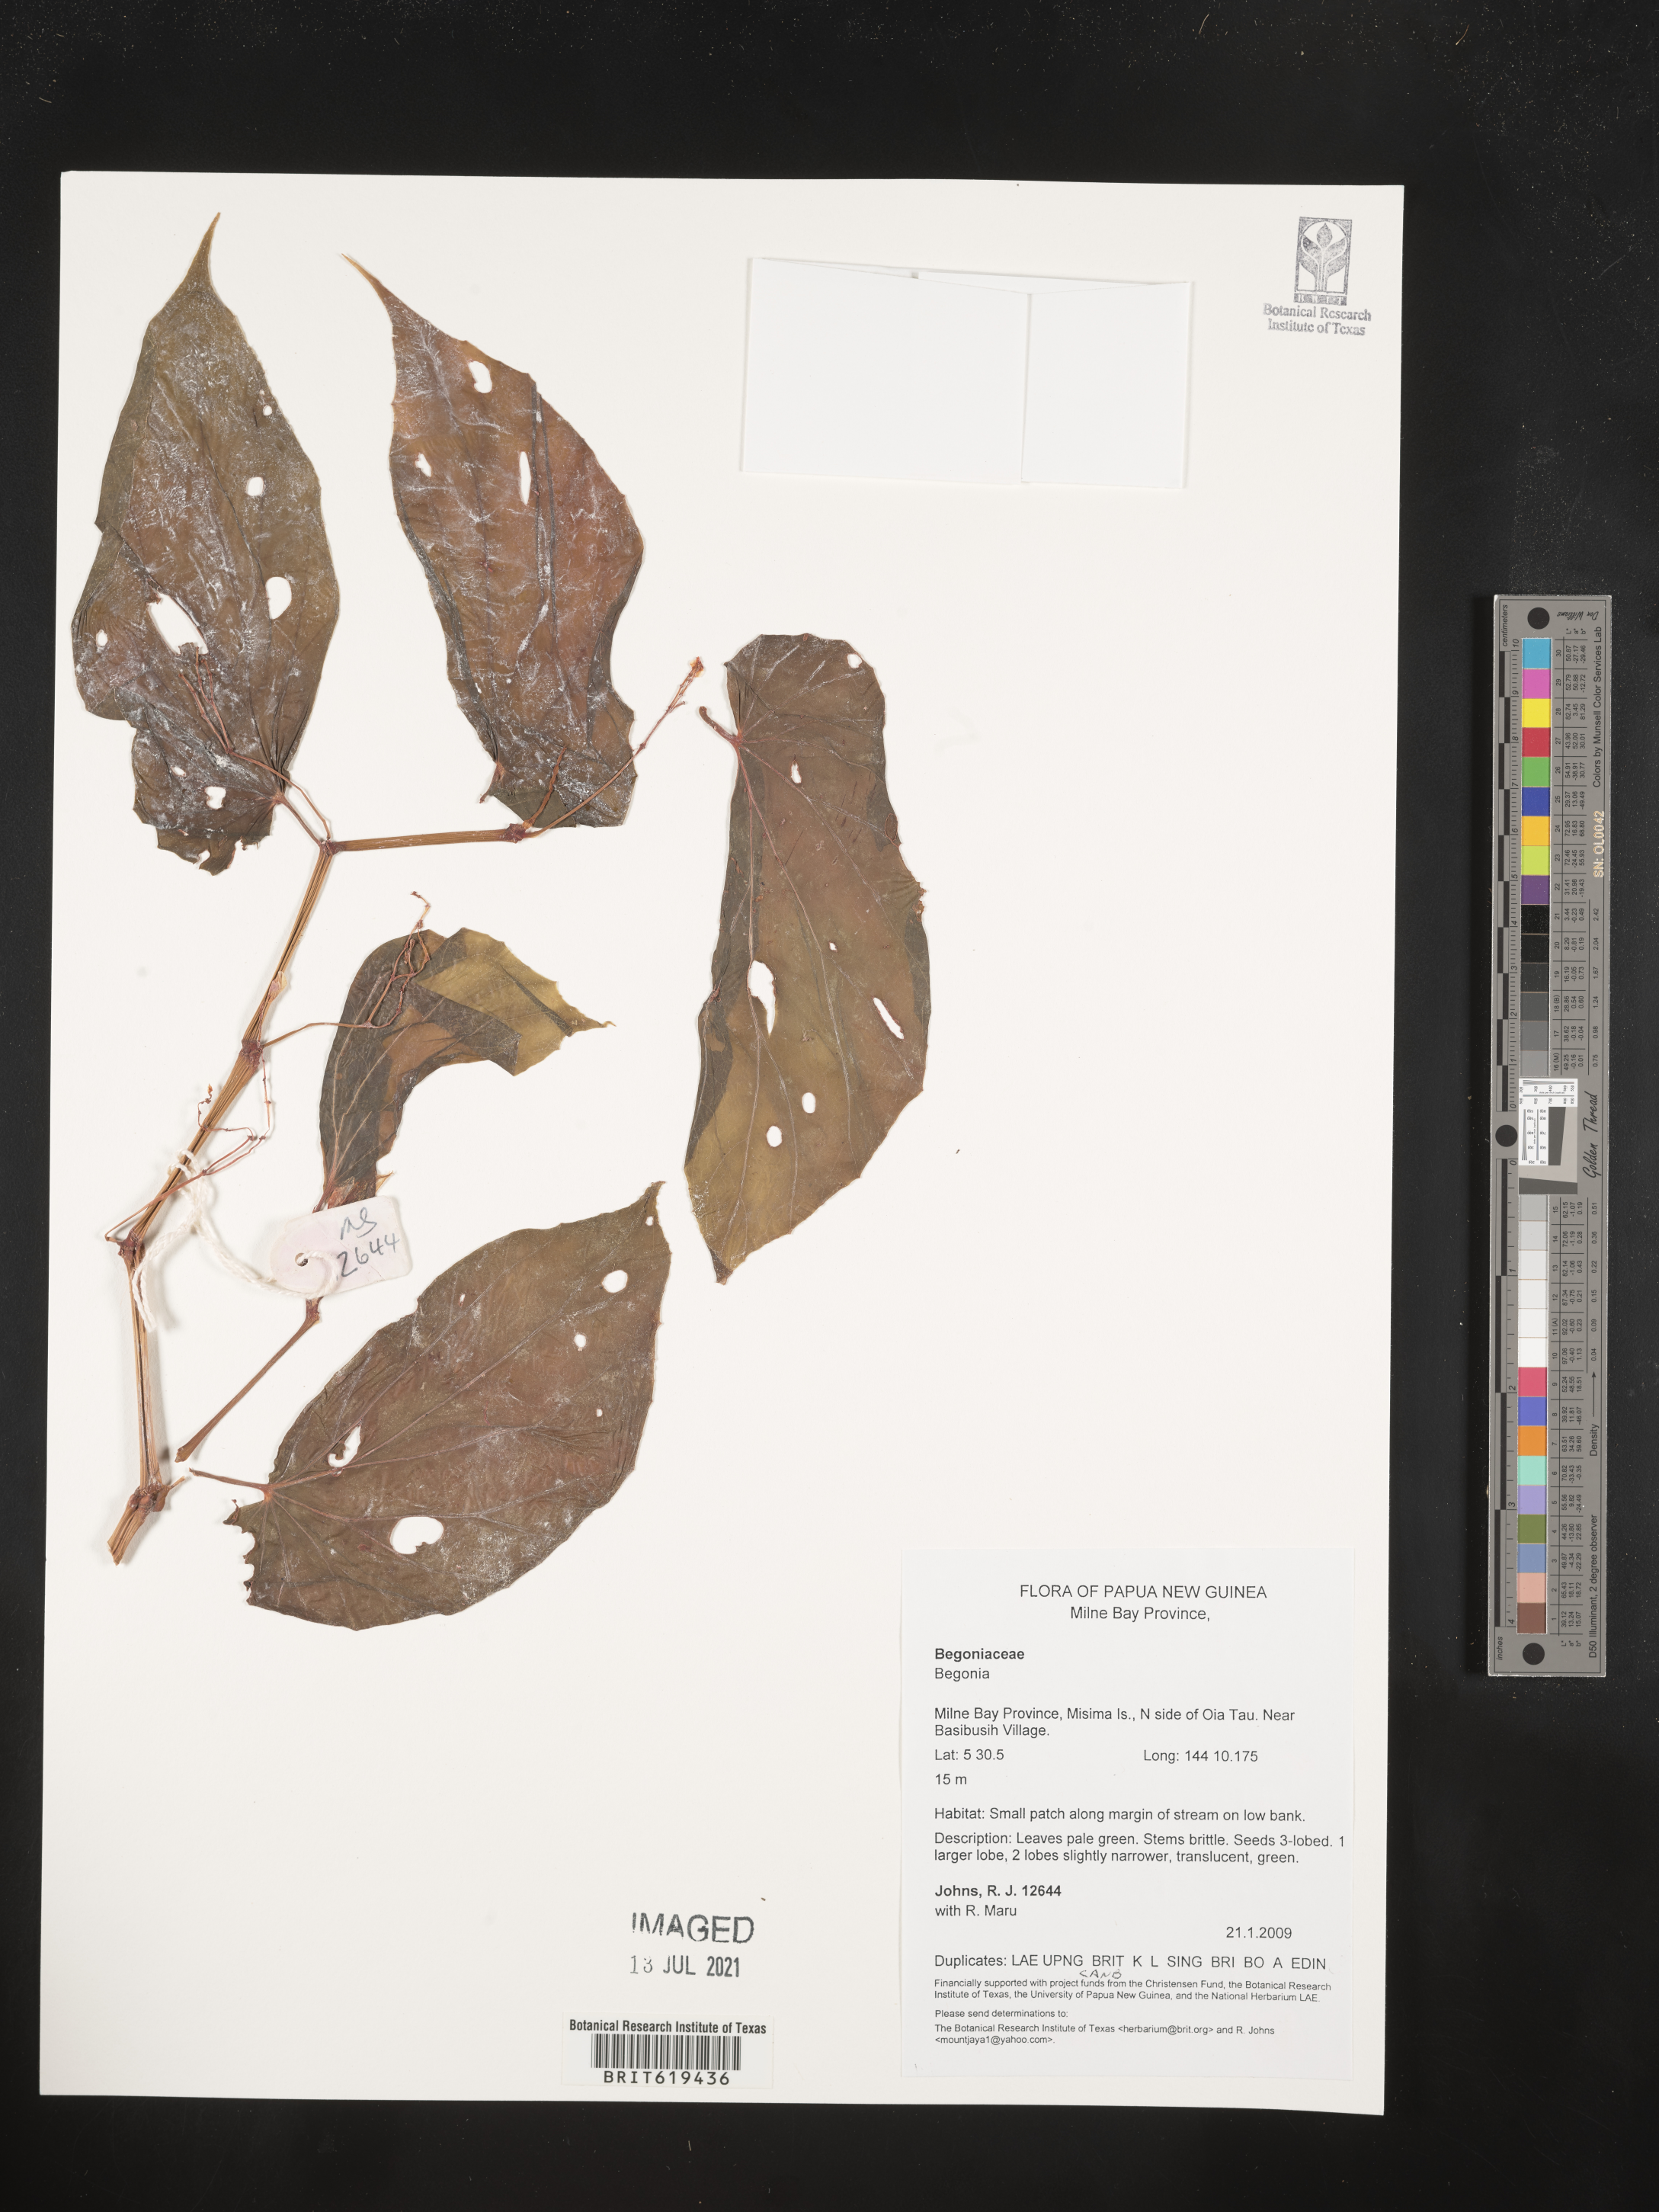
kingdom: Plantae
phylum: Tracheophyta
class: Magnoliopsida
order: Cucurbitales
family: Begoniaceae
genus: Begonia
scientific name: Begonia
